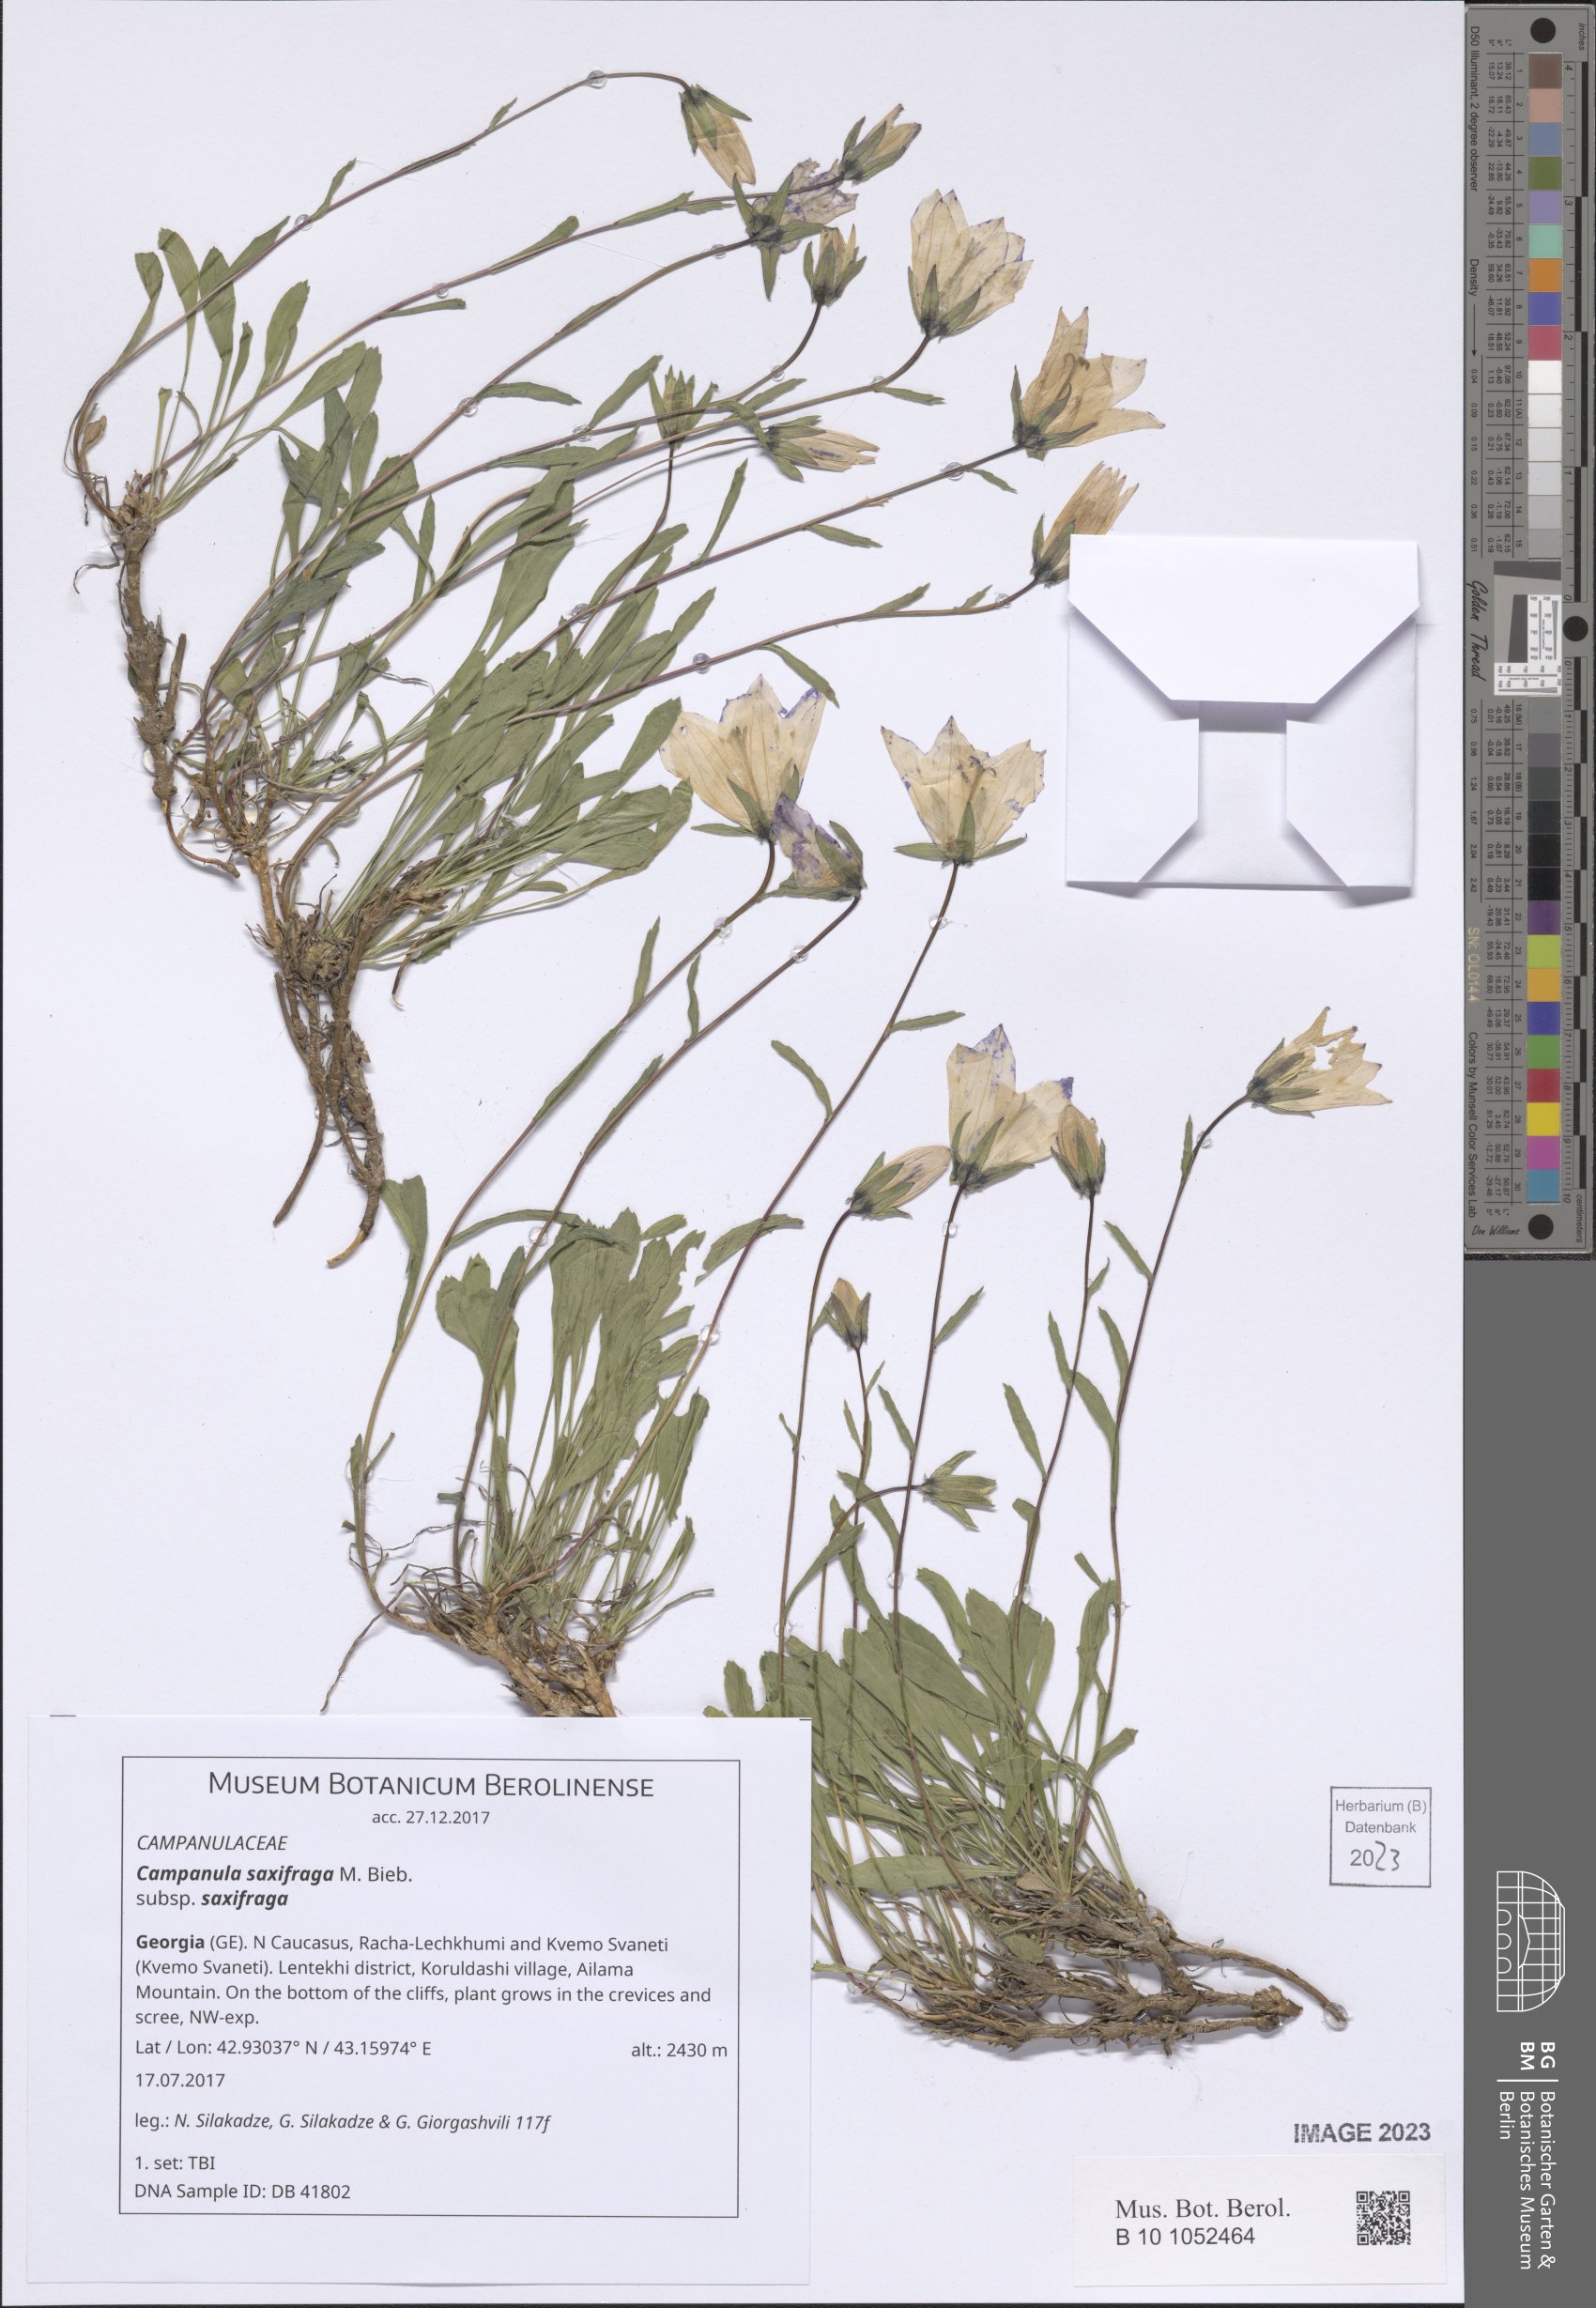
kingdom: Plantae
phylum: Tracheophyta
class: Magnoliopsida
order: Asterales
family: Campanulaceae
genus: Campanula
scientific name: Campanula saxifraga
